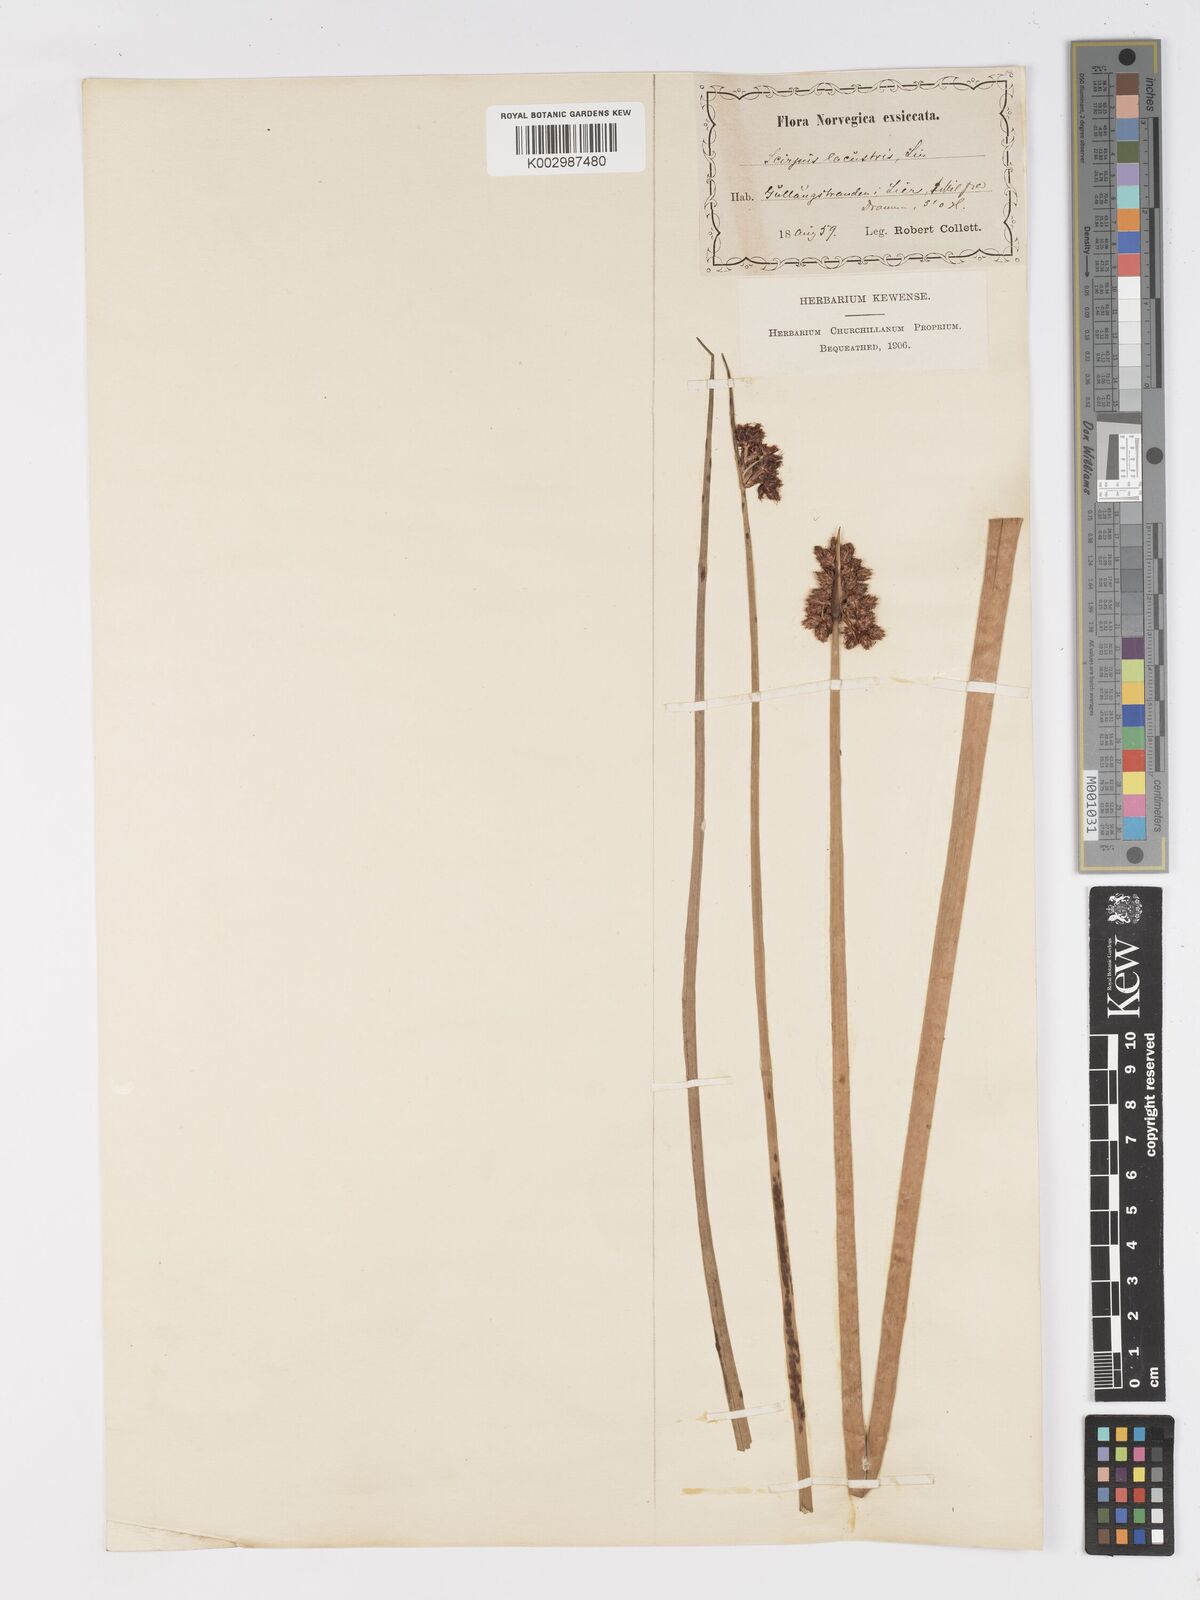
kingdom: Plantae
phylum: Tracheophyta
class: Liliopsida
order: Poales
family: Cyperaceae
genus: Schoenoplectus
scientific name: Schoenoplectus lacustris
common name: Common club-rush
